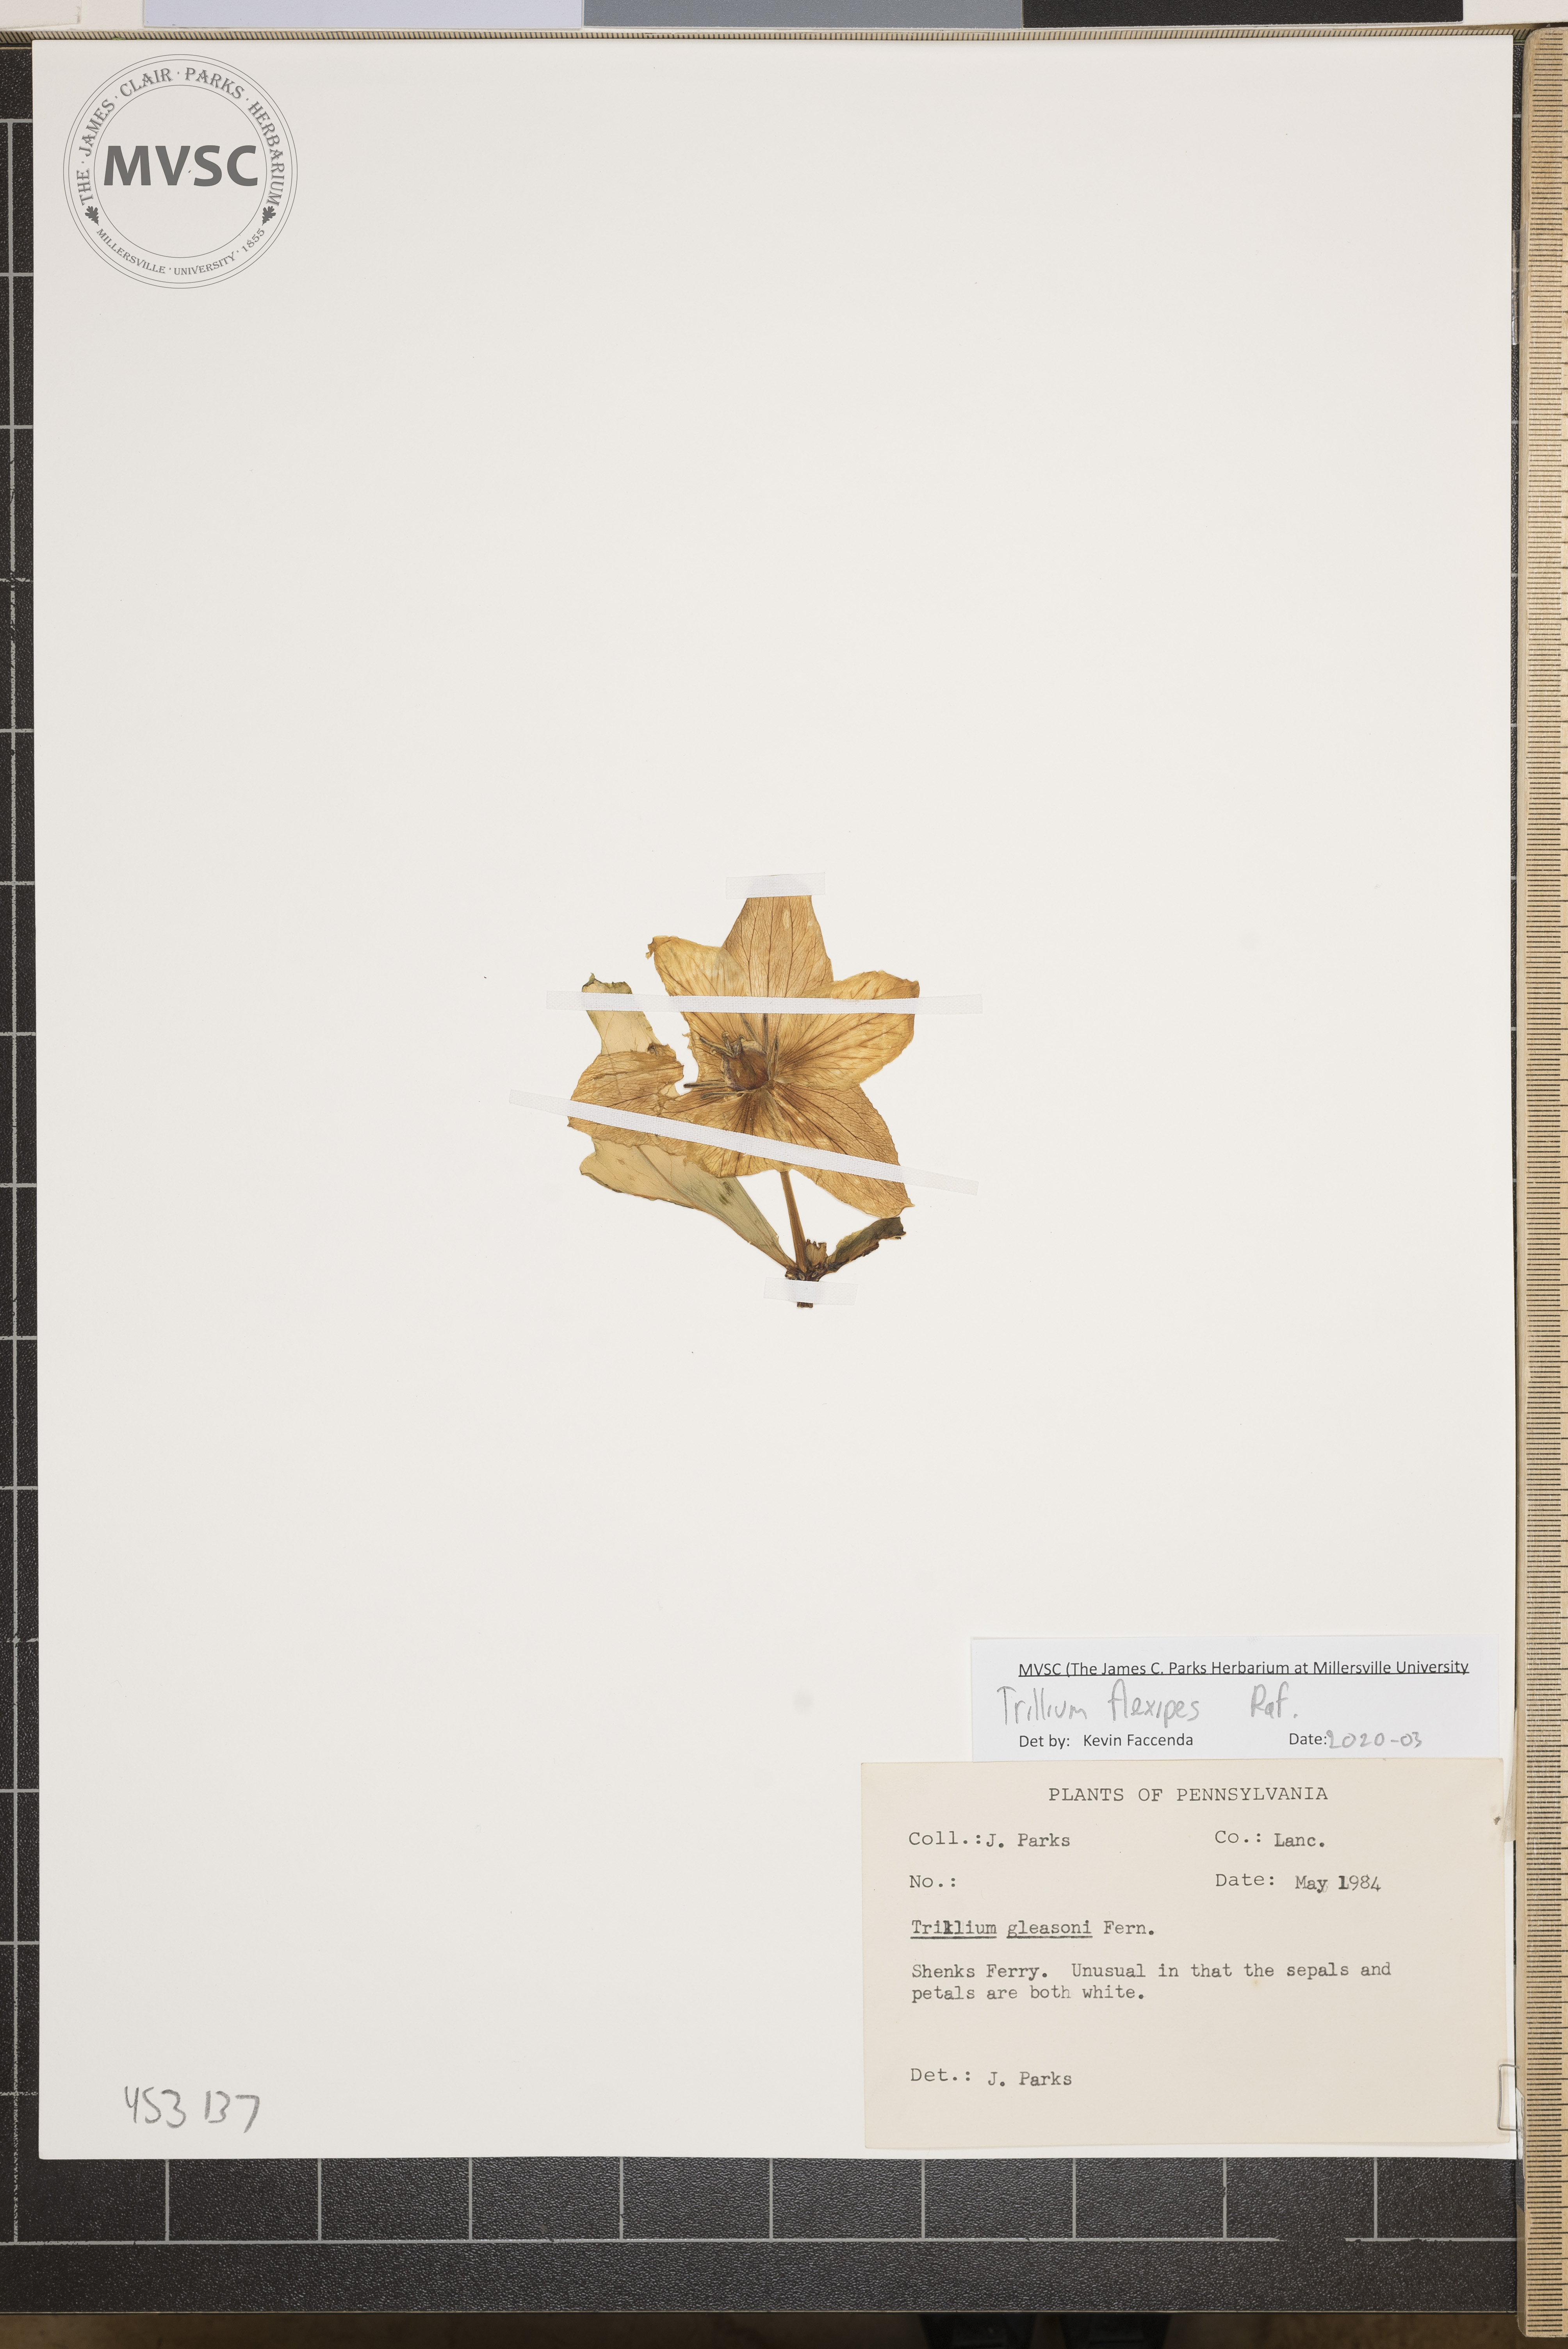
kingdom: Plantae
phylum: Tracheophyta
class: Liliopsida
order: Liliales
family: Melanthiaceae
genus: Trillium
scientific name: Trillium flexipes
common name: Drooping trillium
